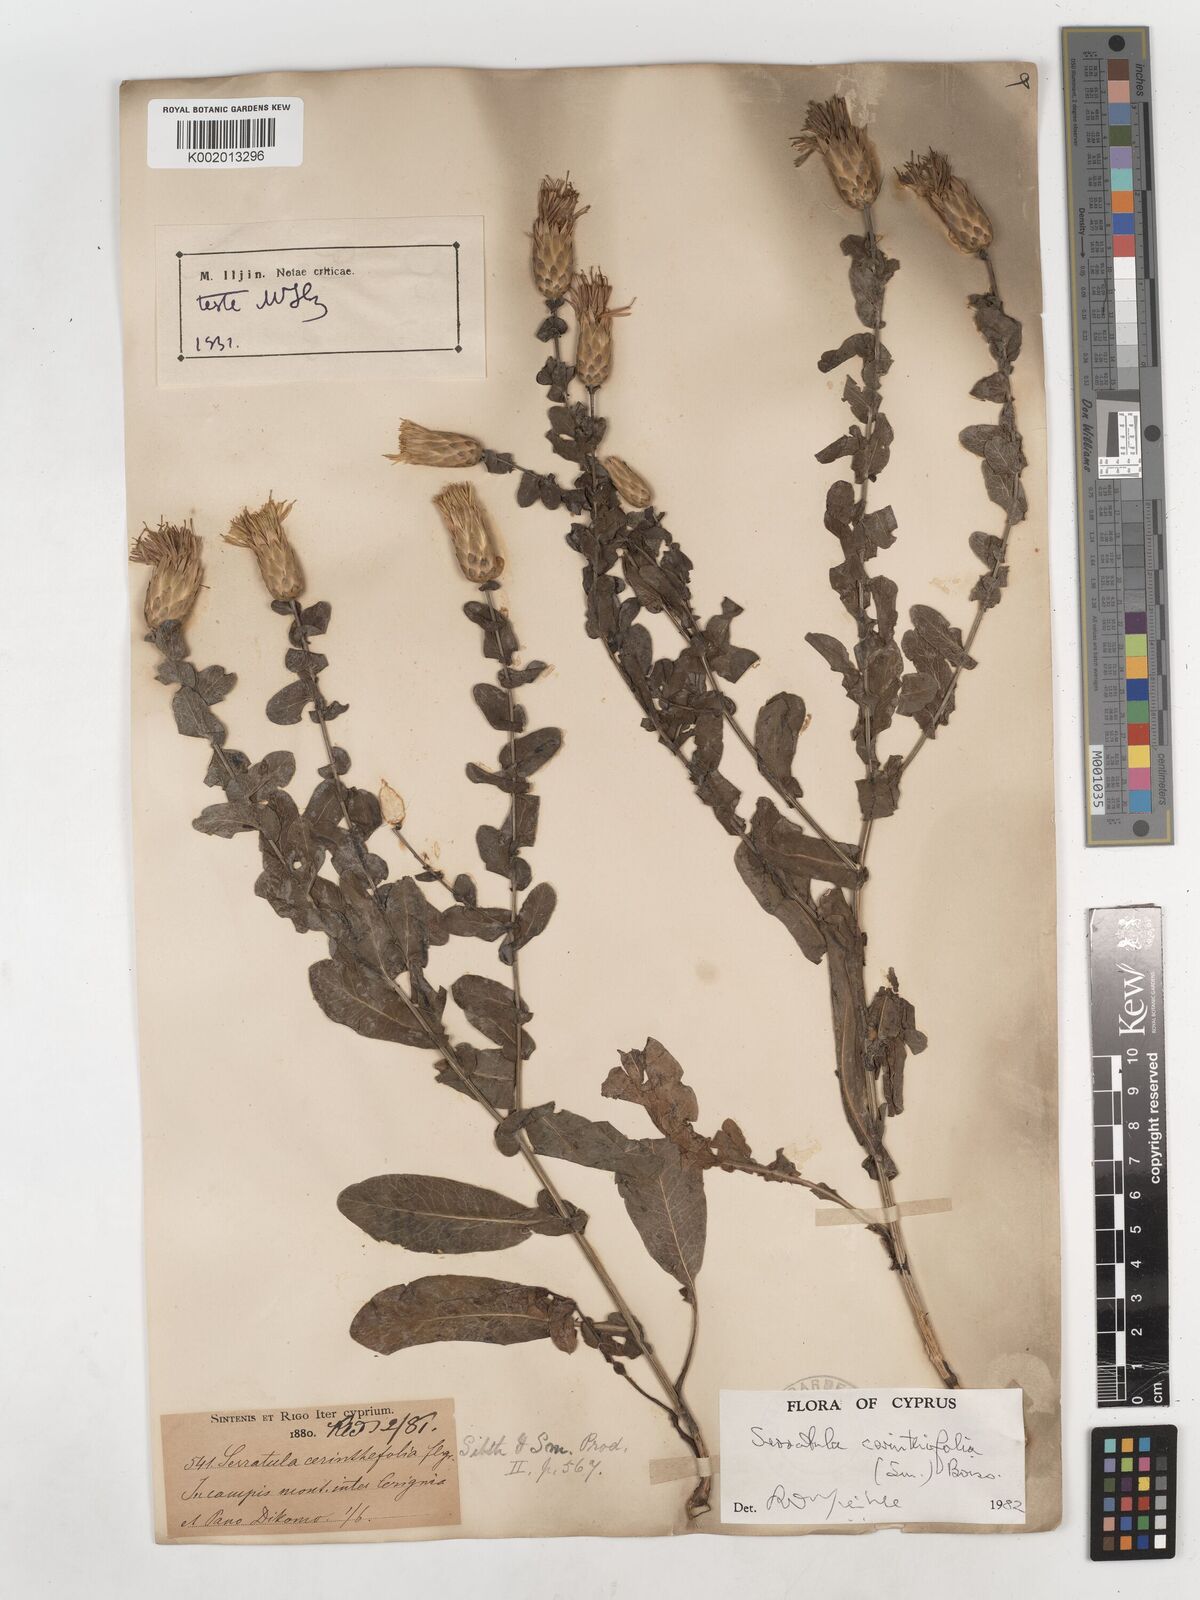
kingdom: Plantae
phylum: Tracheophyta
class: Magnoliopsida
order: Asterales
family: Asteraceae
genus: Klasea
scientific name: Klasea cerinthifolia
